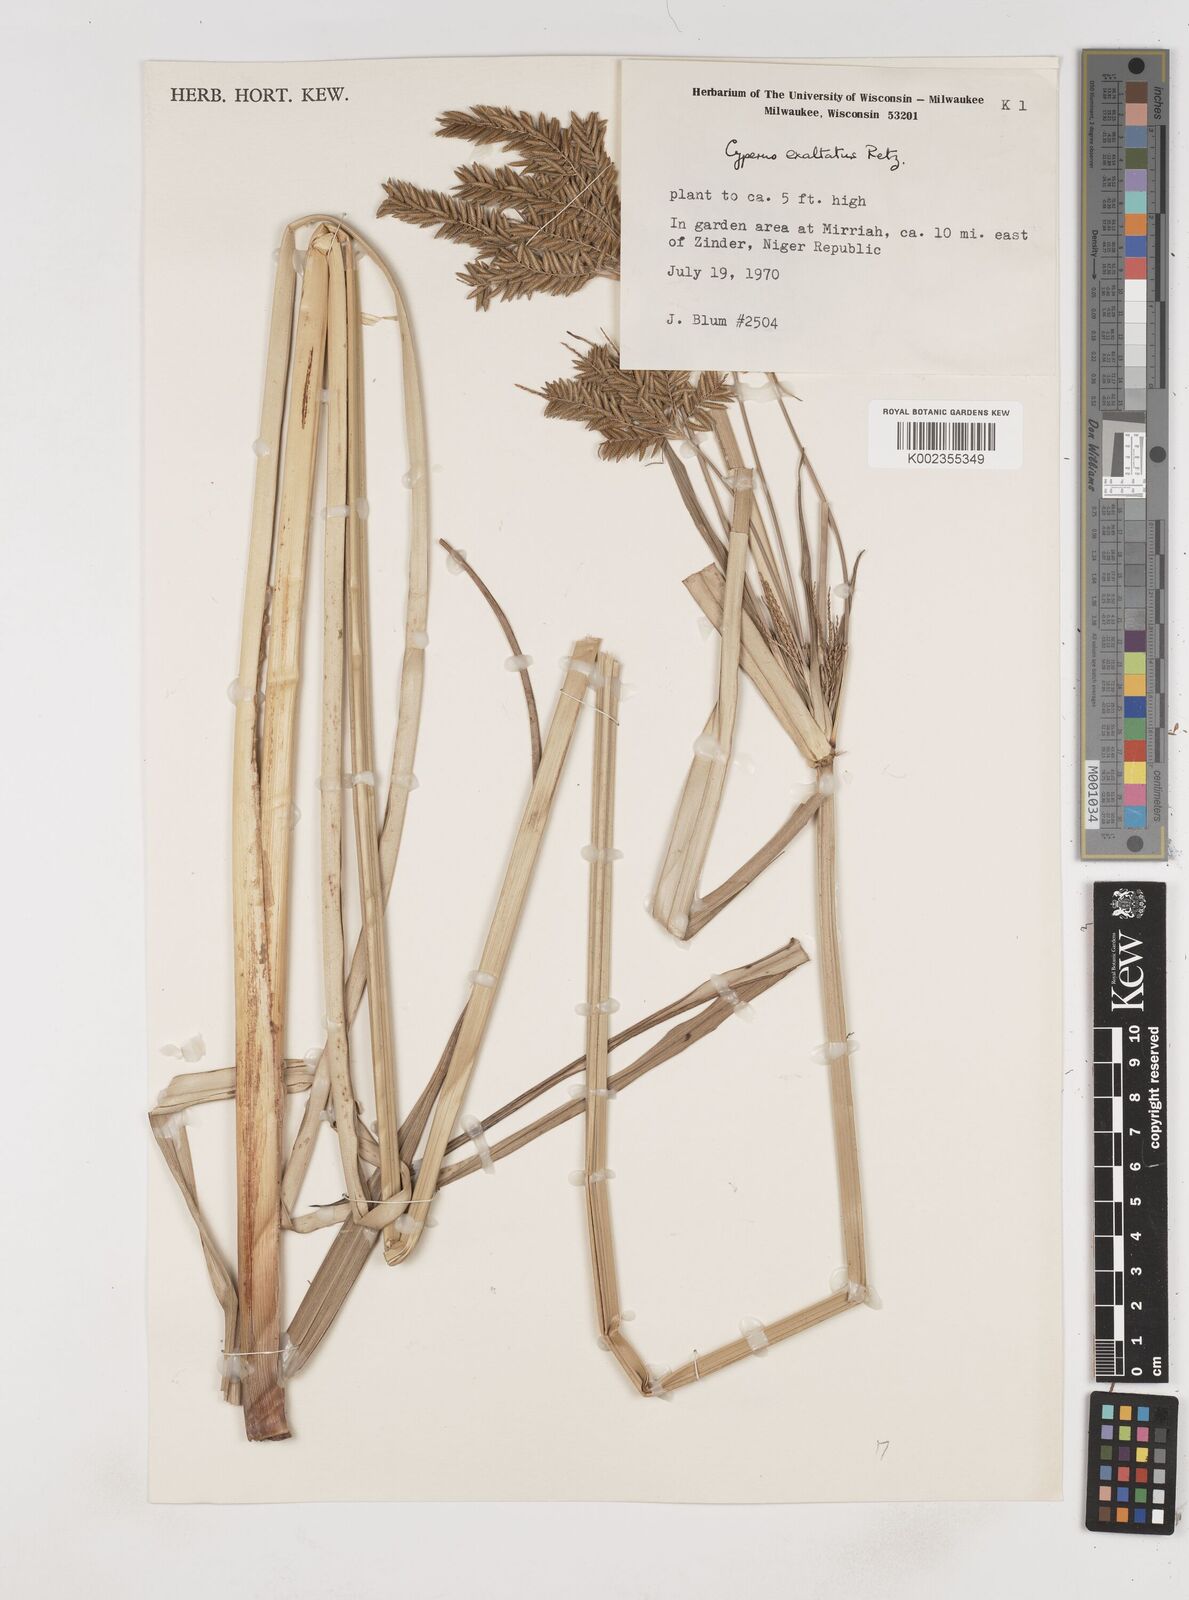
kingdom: Plantae
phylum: Tracheophyta
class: Liliopsida
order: Poales
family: Cyperaceae
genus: Cyperus
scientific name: Cyperus exaltatus
